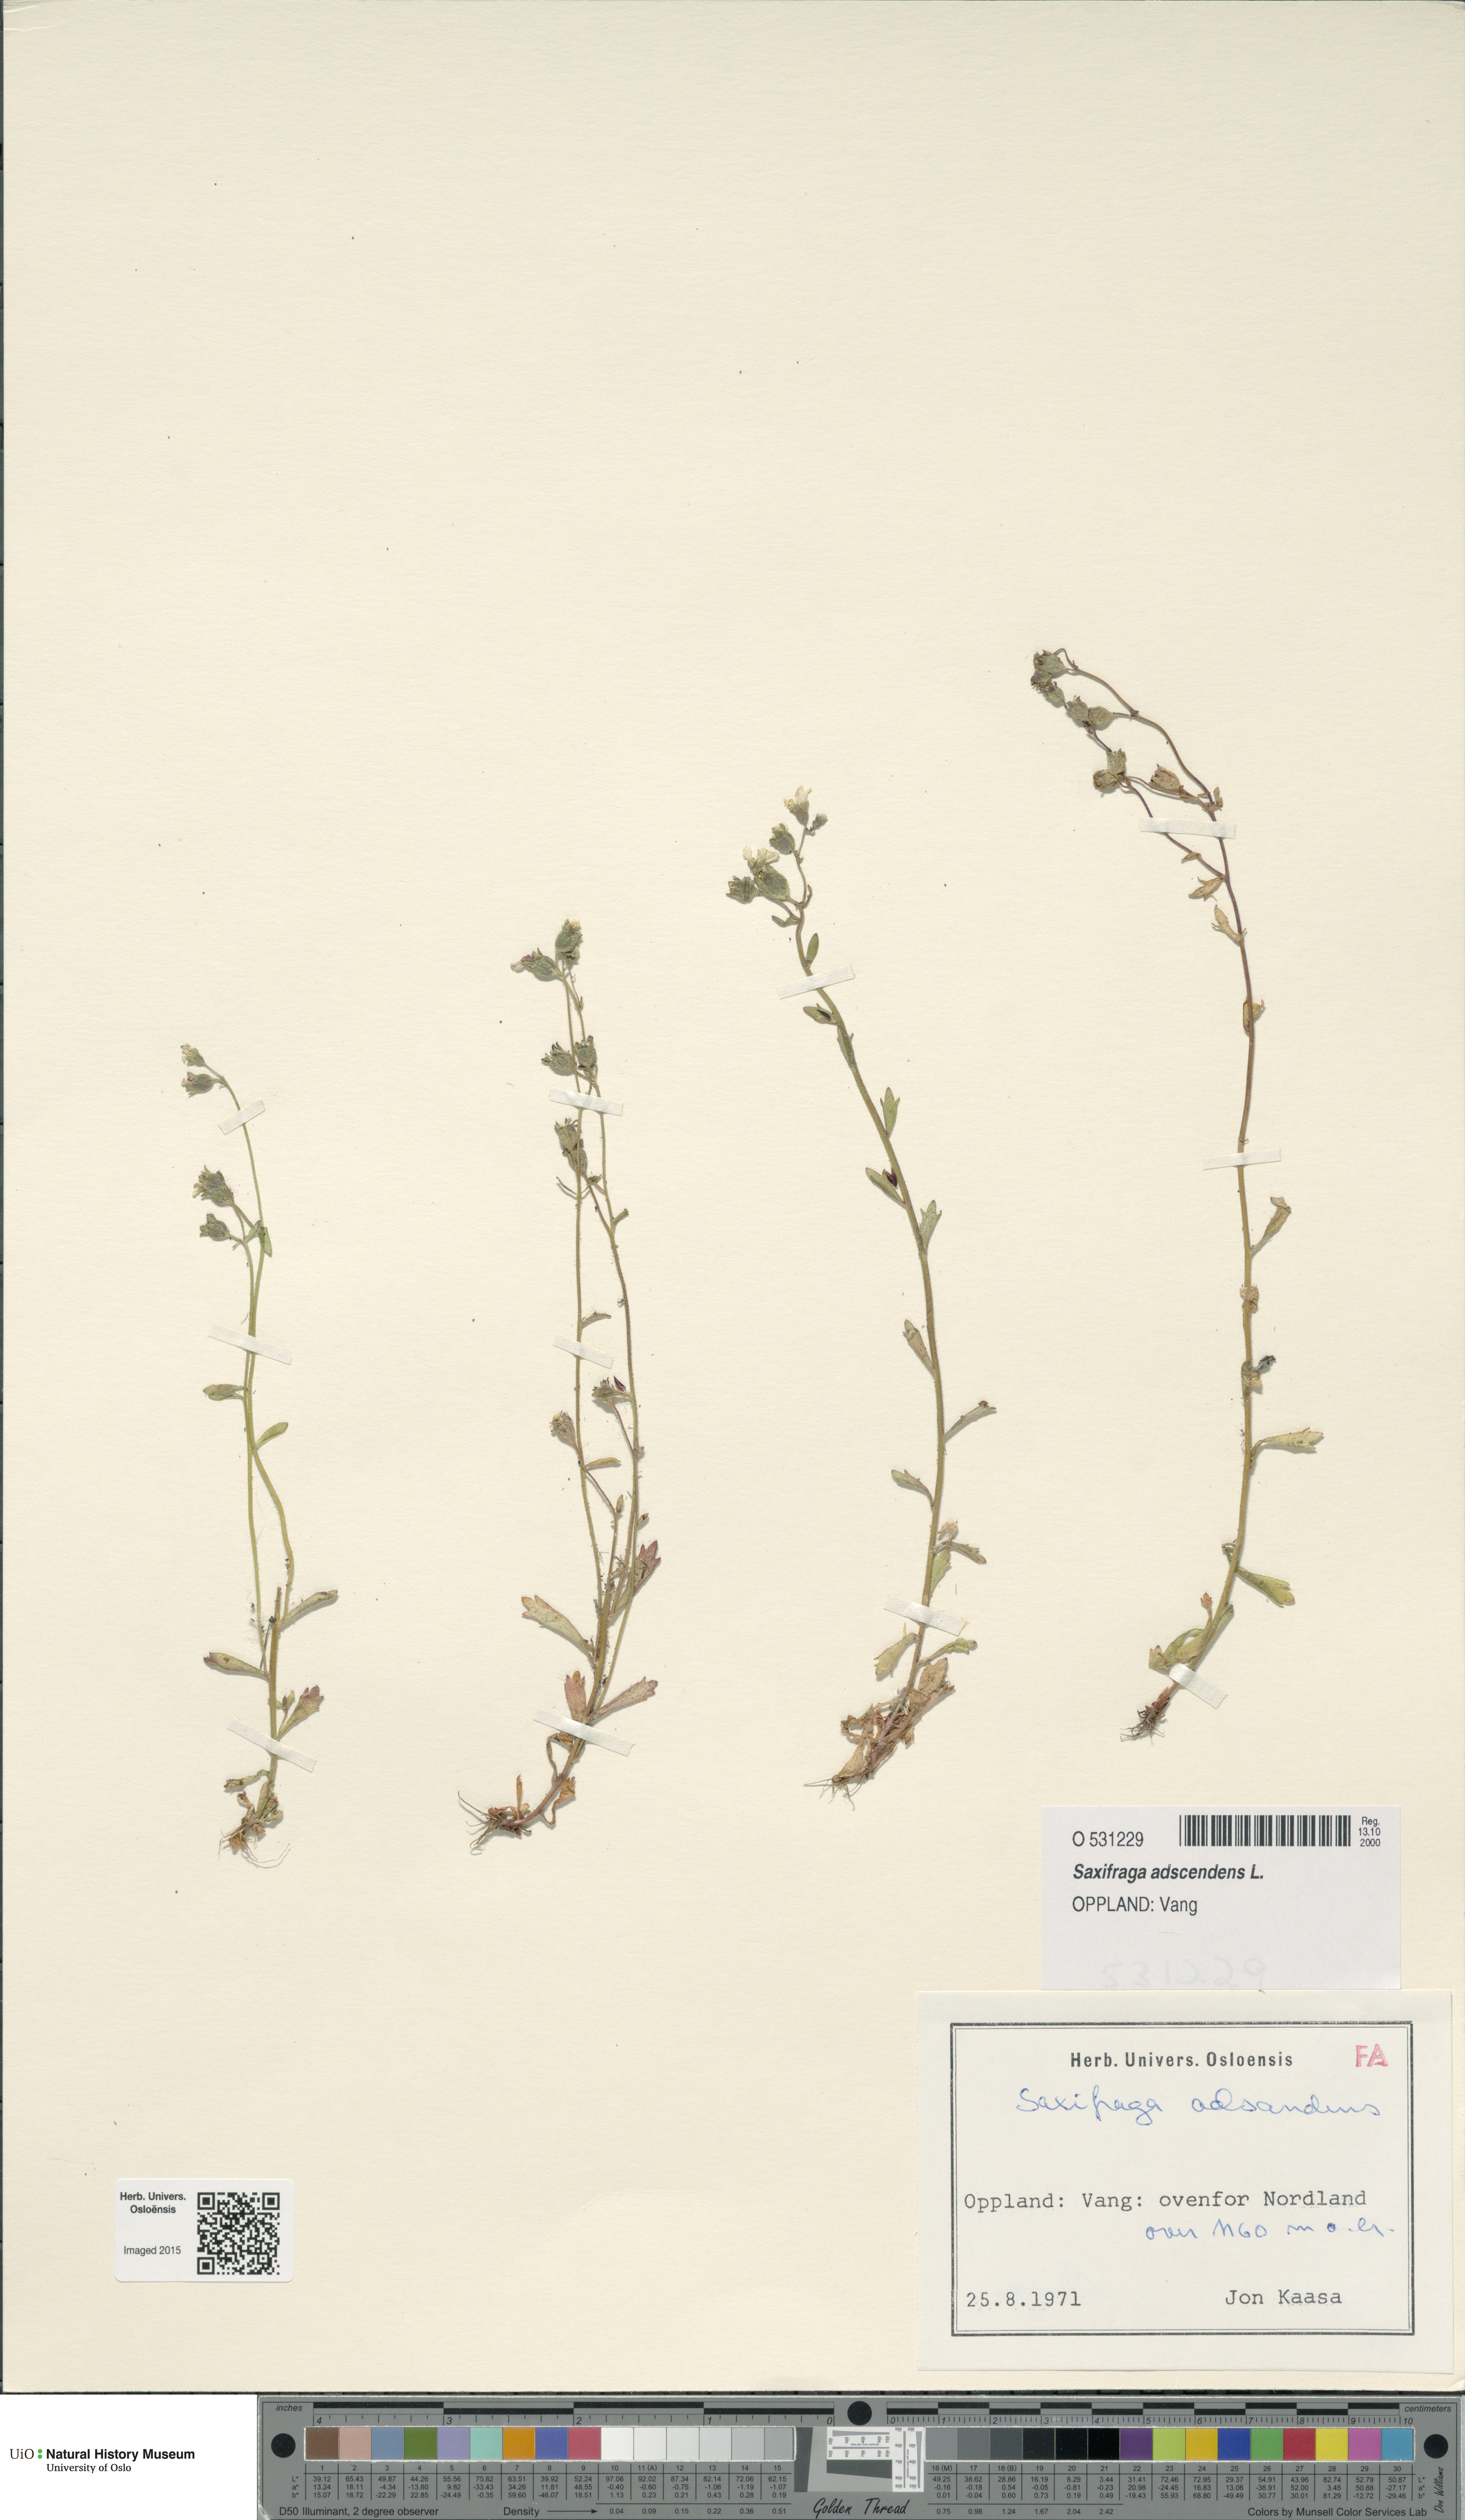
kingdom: Plantae
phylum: Tracheophyta
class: Magnoliopsida
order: Saxifragales
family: Saxifragaceae
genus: Saxifraga
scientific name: Saxifraga adscendens
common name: Ascending saxifrage
